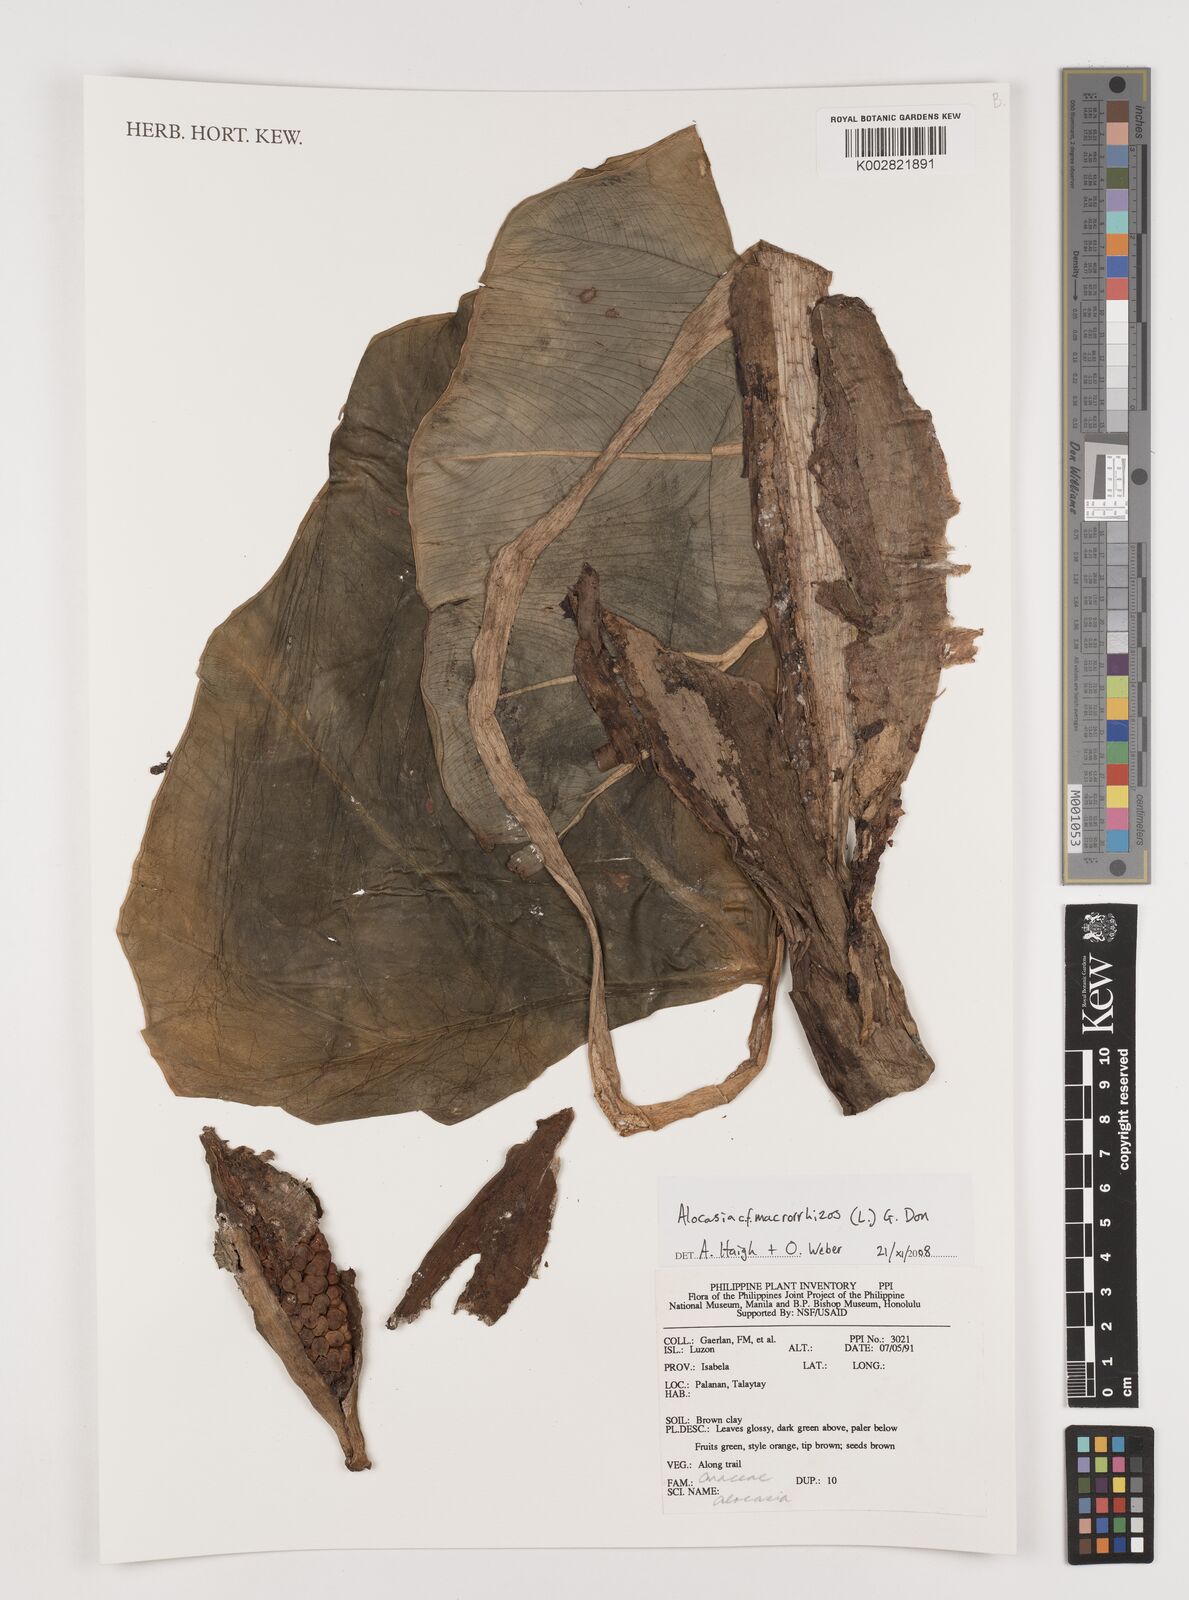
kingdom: Plantae
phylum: Tracheophyta
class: Liliopsida
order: Alismatales
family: Araceae
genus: Alocasia
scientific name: Alocasia macrorrhizos
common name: Giant taro
